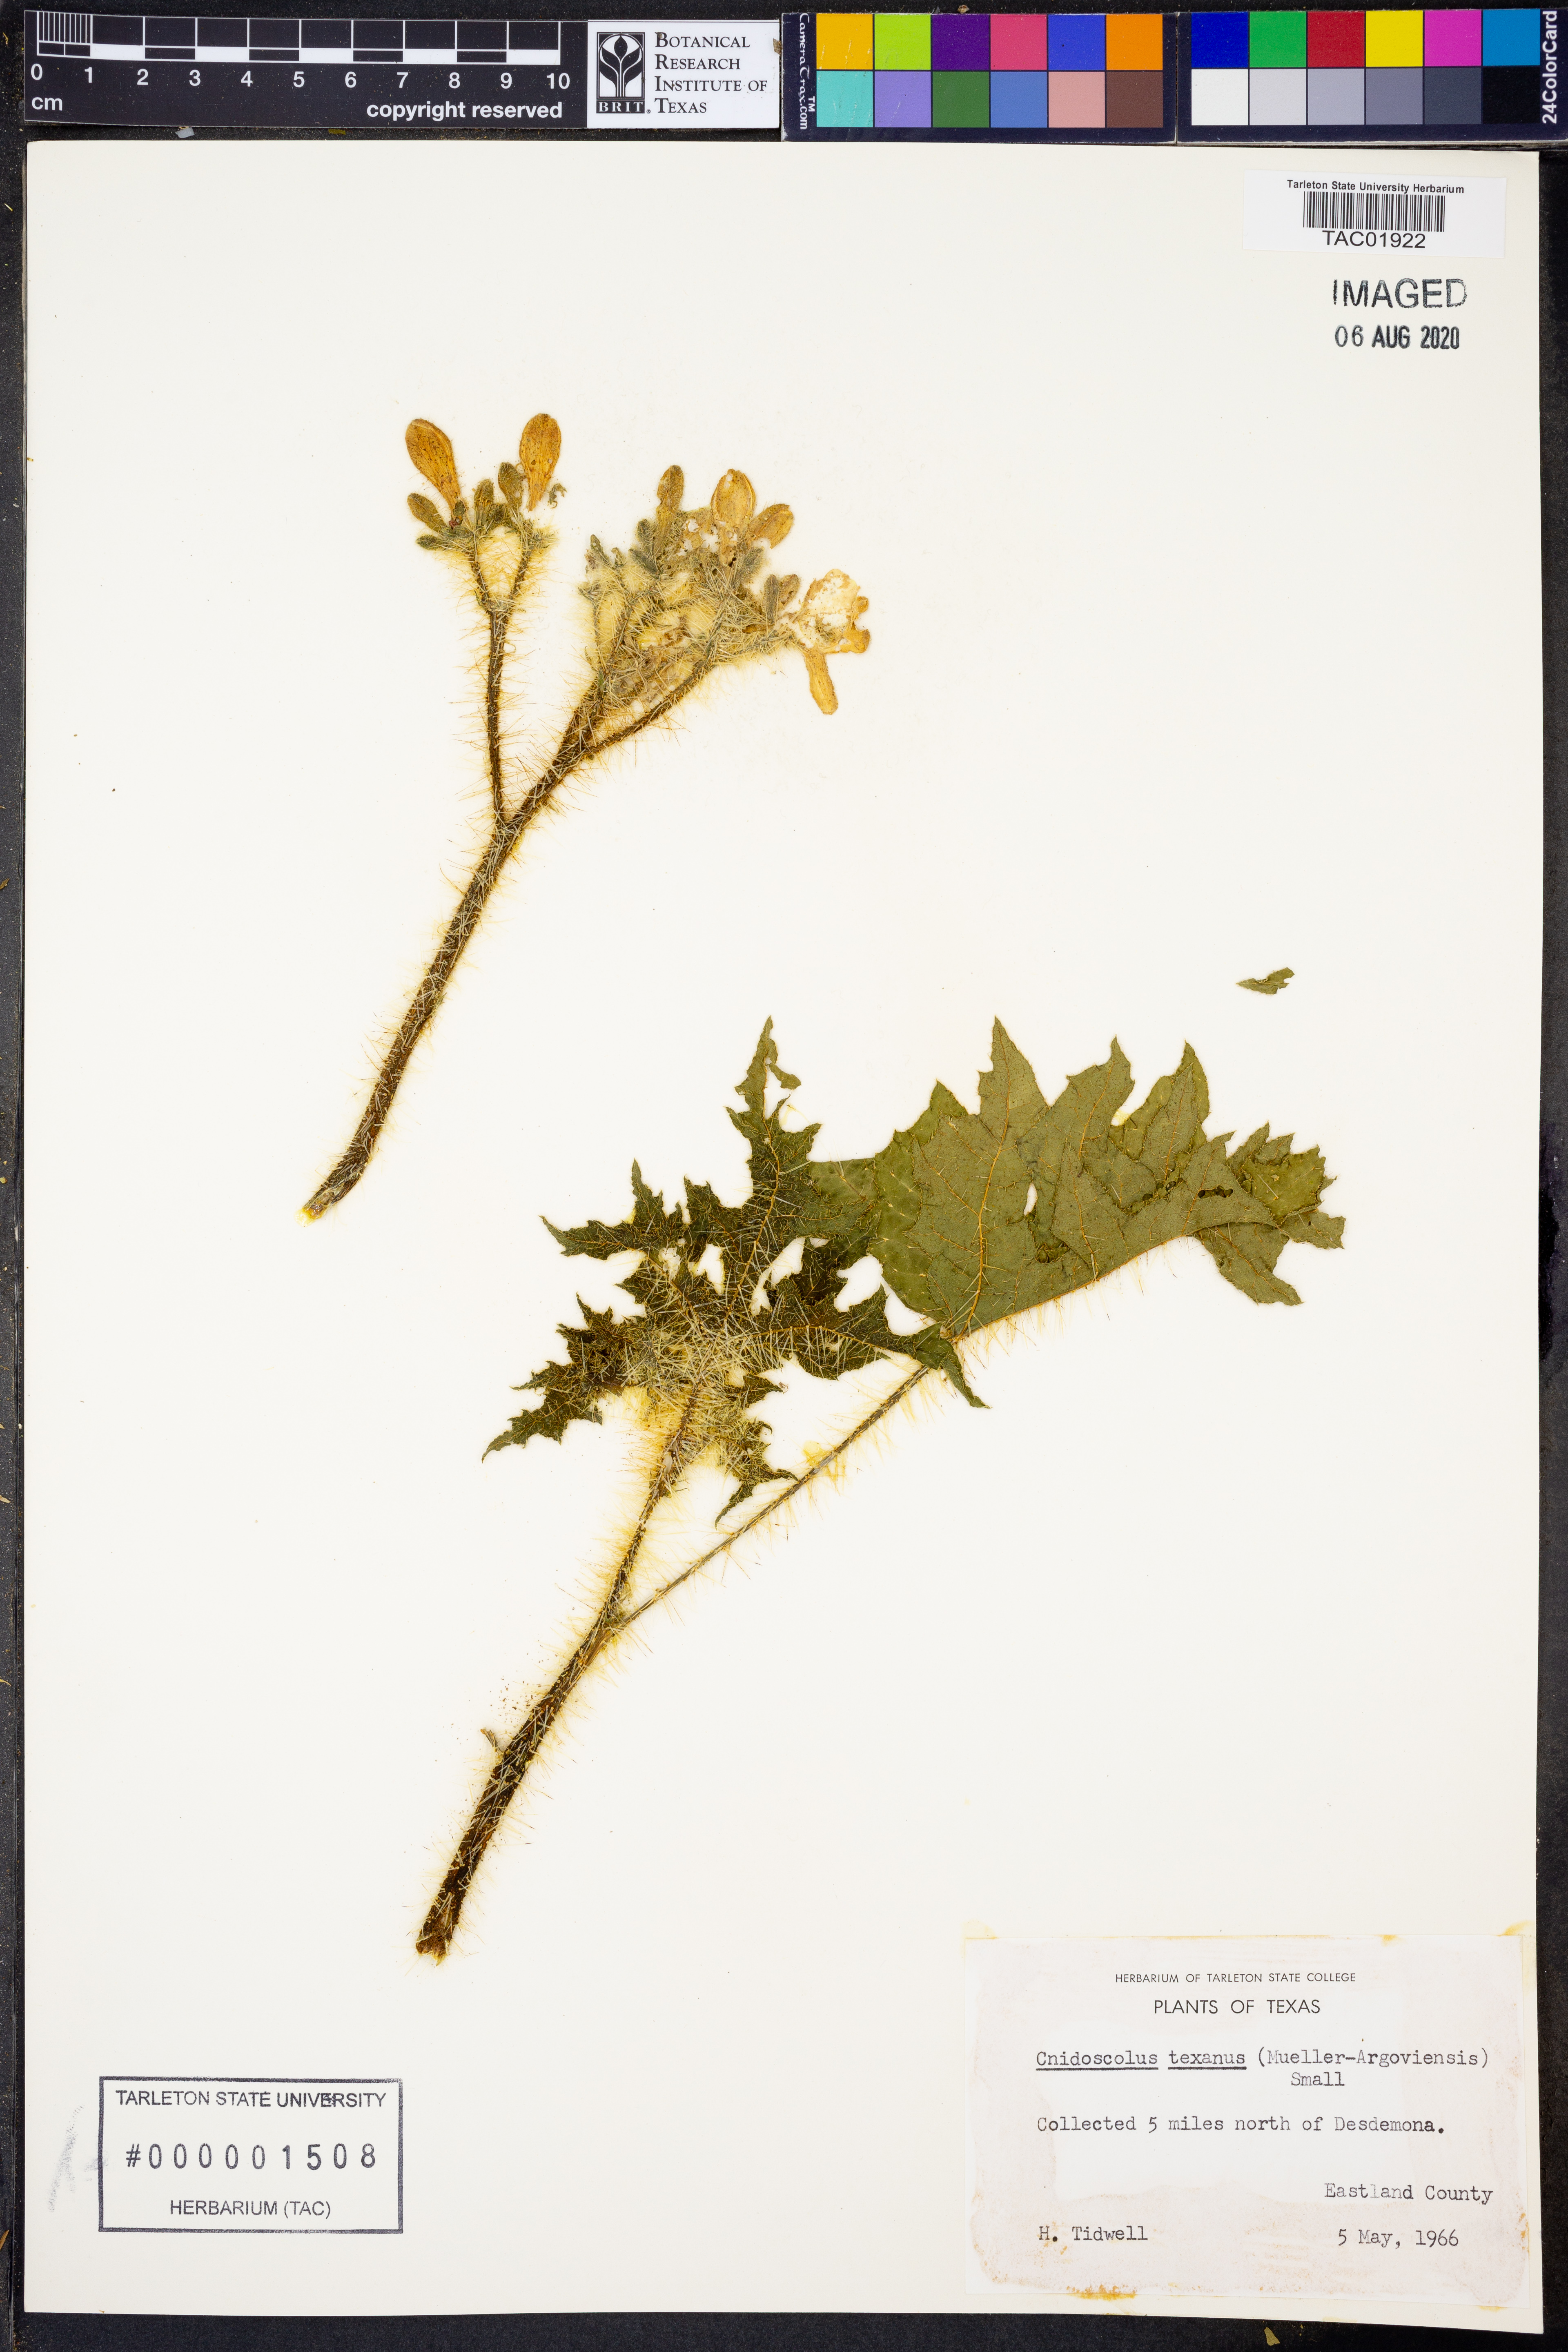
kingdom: Plantae
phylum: Tracheophyta
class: Magnoliopsida
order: Malpighiales
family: Euphorbiaceae
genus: Cnidoscolus
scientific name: Cnidoscolus texanus
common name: Texas bull-nettle
